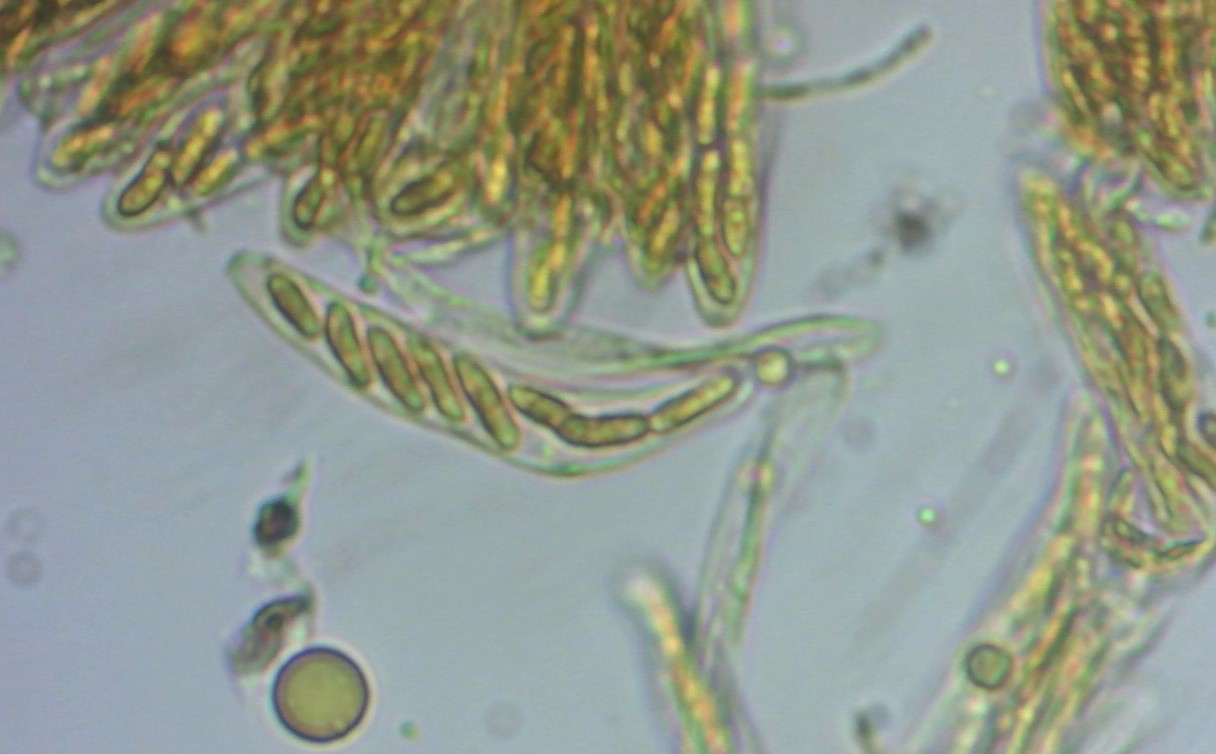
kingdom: Fungi
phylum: Ascomycota
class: Leotiomycetes
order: Helotiales
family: Hyaloscyphaceae
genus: Protounguicularia
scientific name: Protounguicularia transiens
